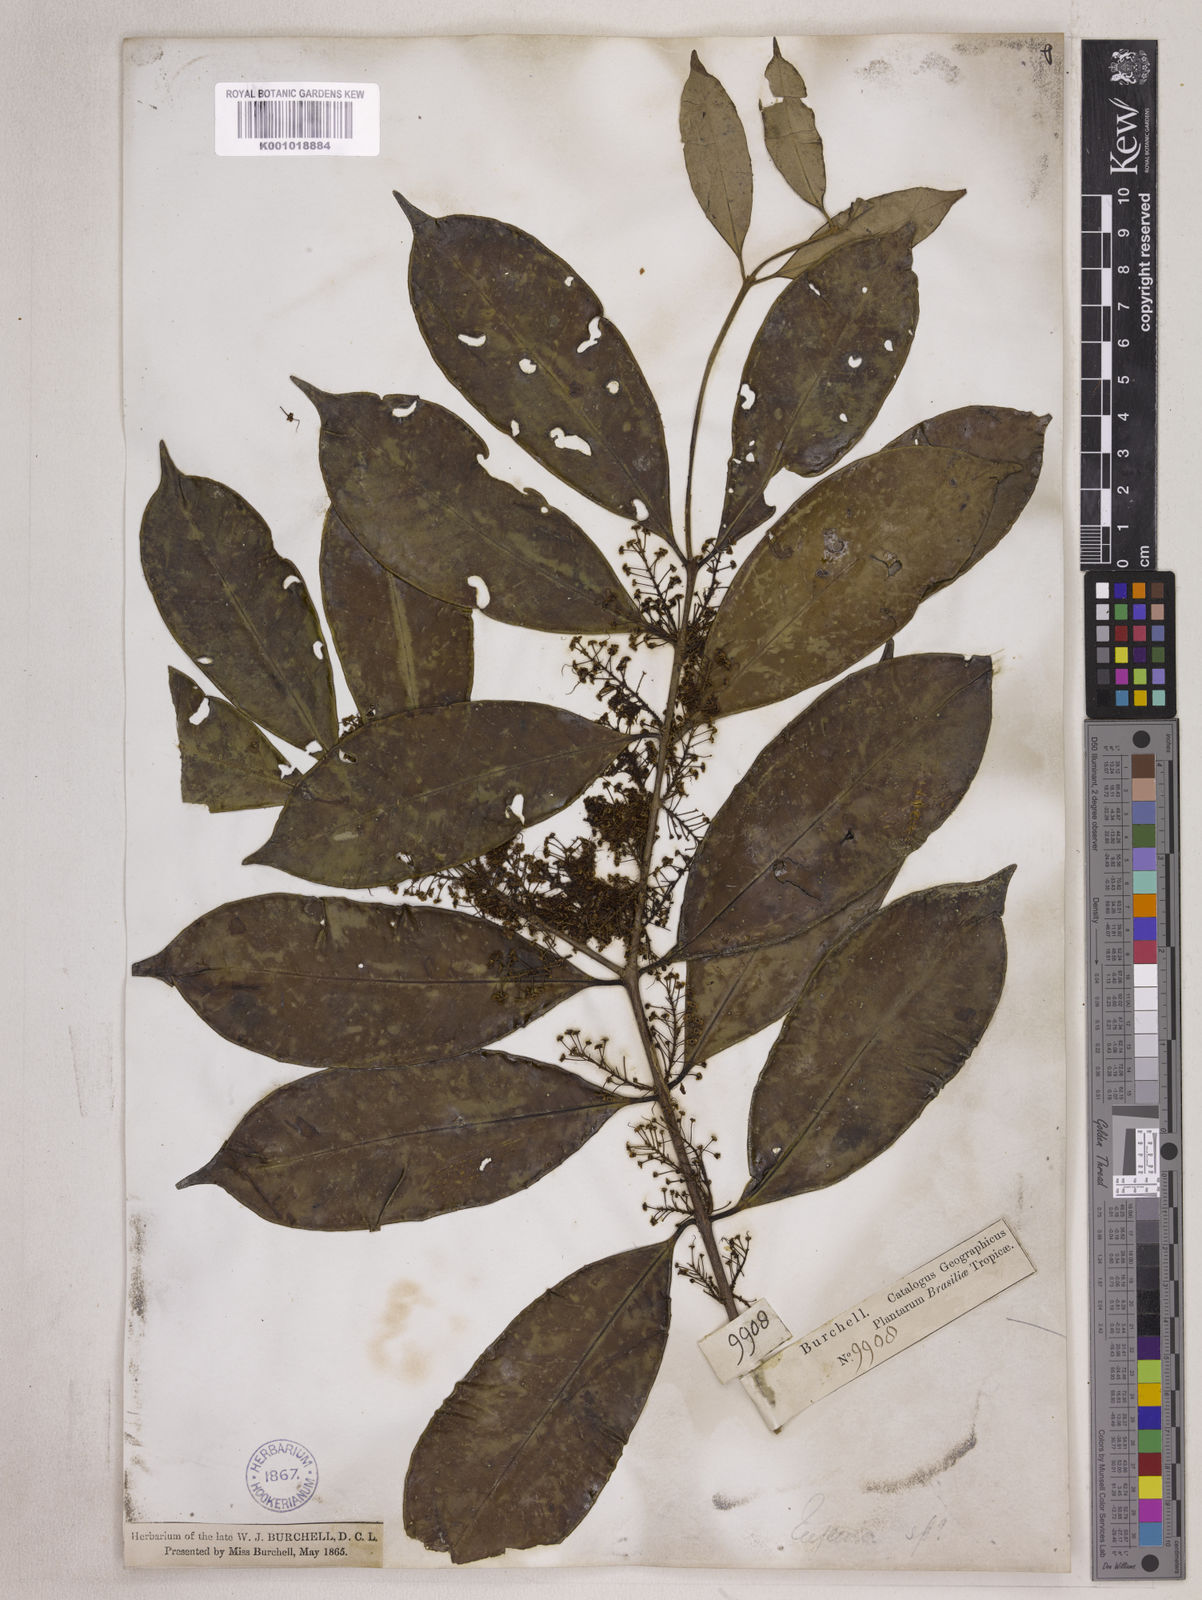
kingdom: Plantae
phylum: Tracheophyta
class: Magnoliopsida
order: Myrtales
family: Myrtaceae
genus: Eugenia
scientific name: Eugenia densiracemosa
